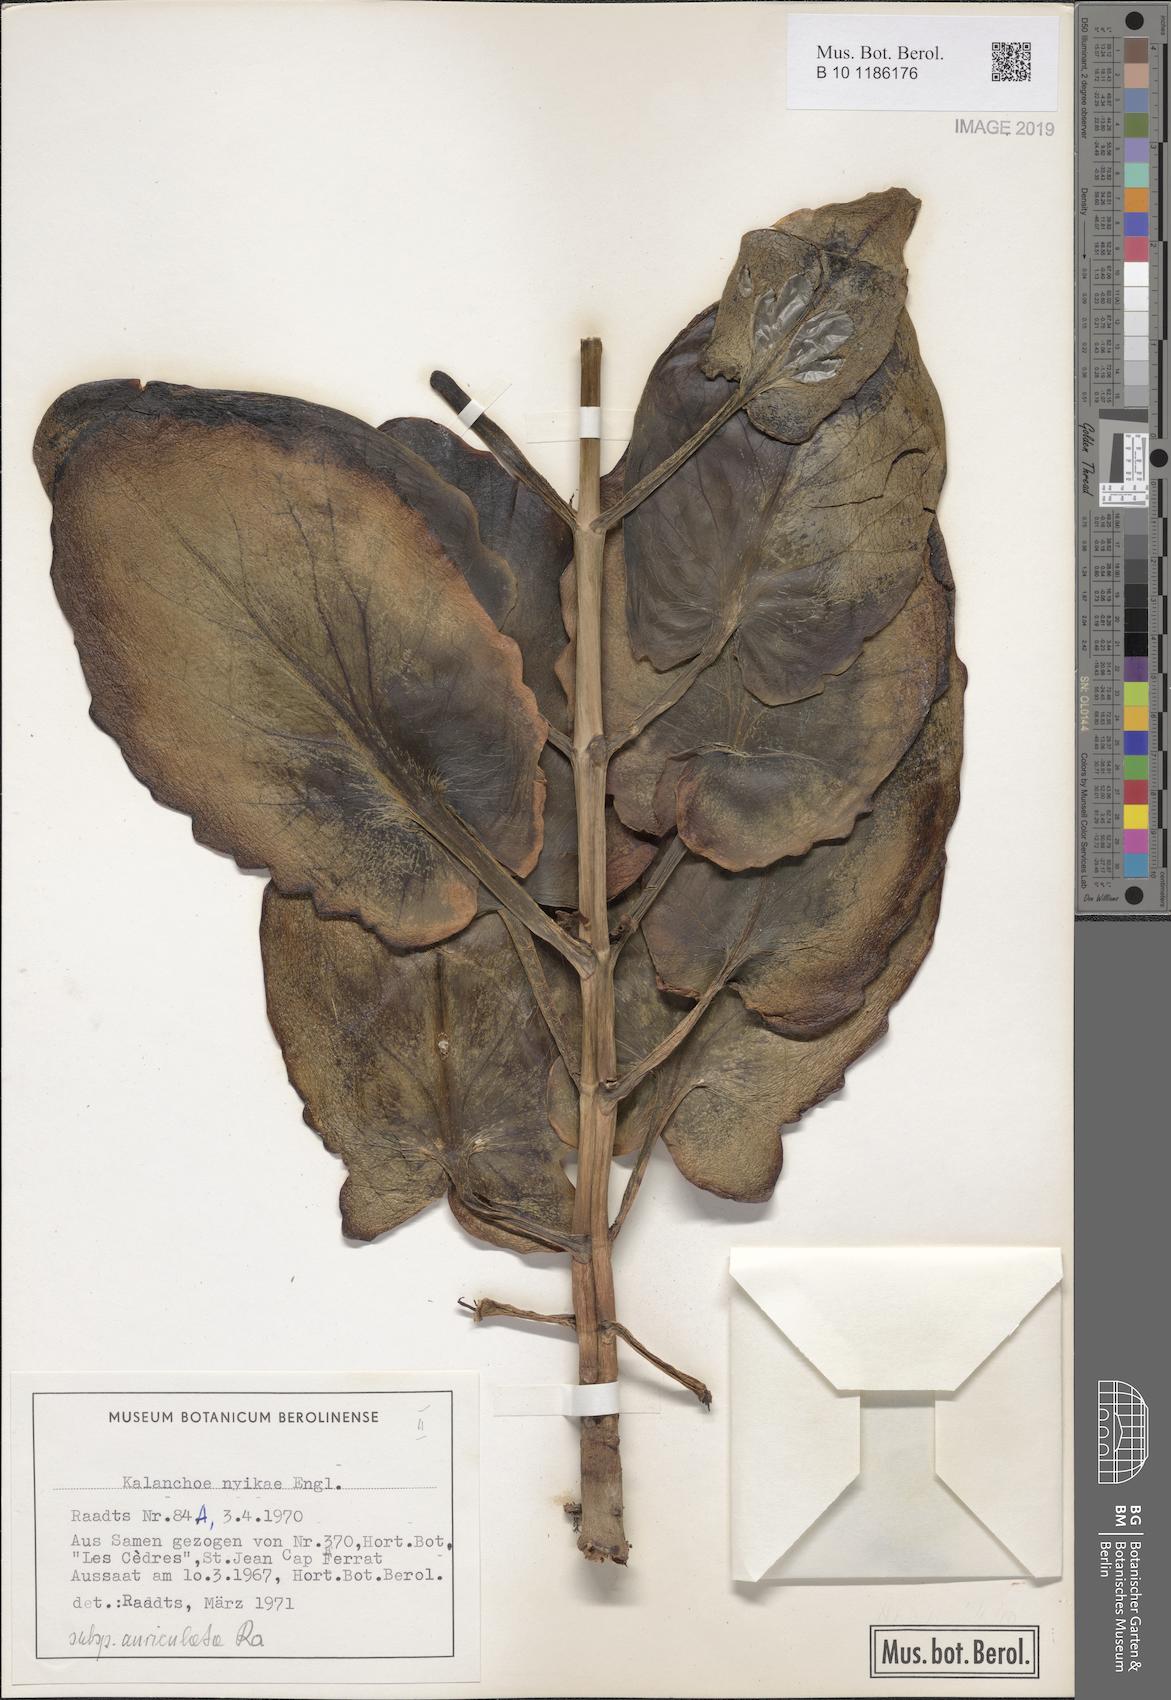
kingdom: Plantae
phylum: Tracheophyta
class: Magnoliopsida
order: Saxifragales
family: Crassulaceae
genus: Kalanchoe
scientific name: Kalanchoe auriculata
